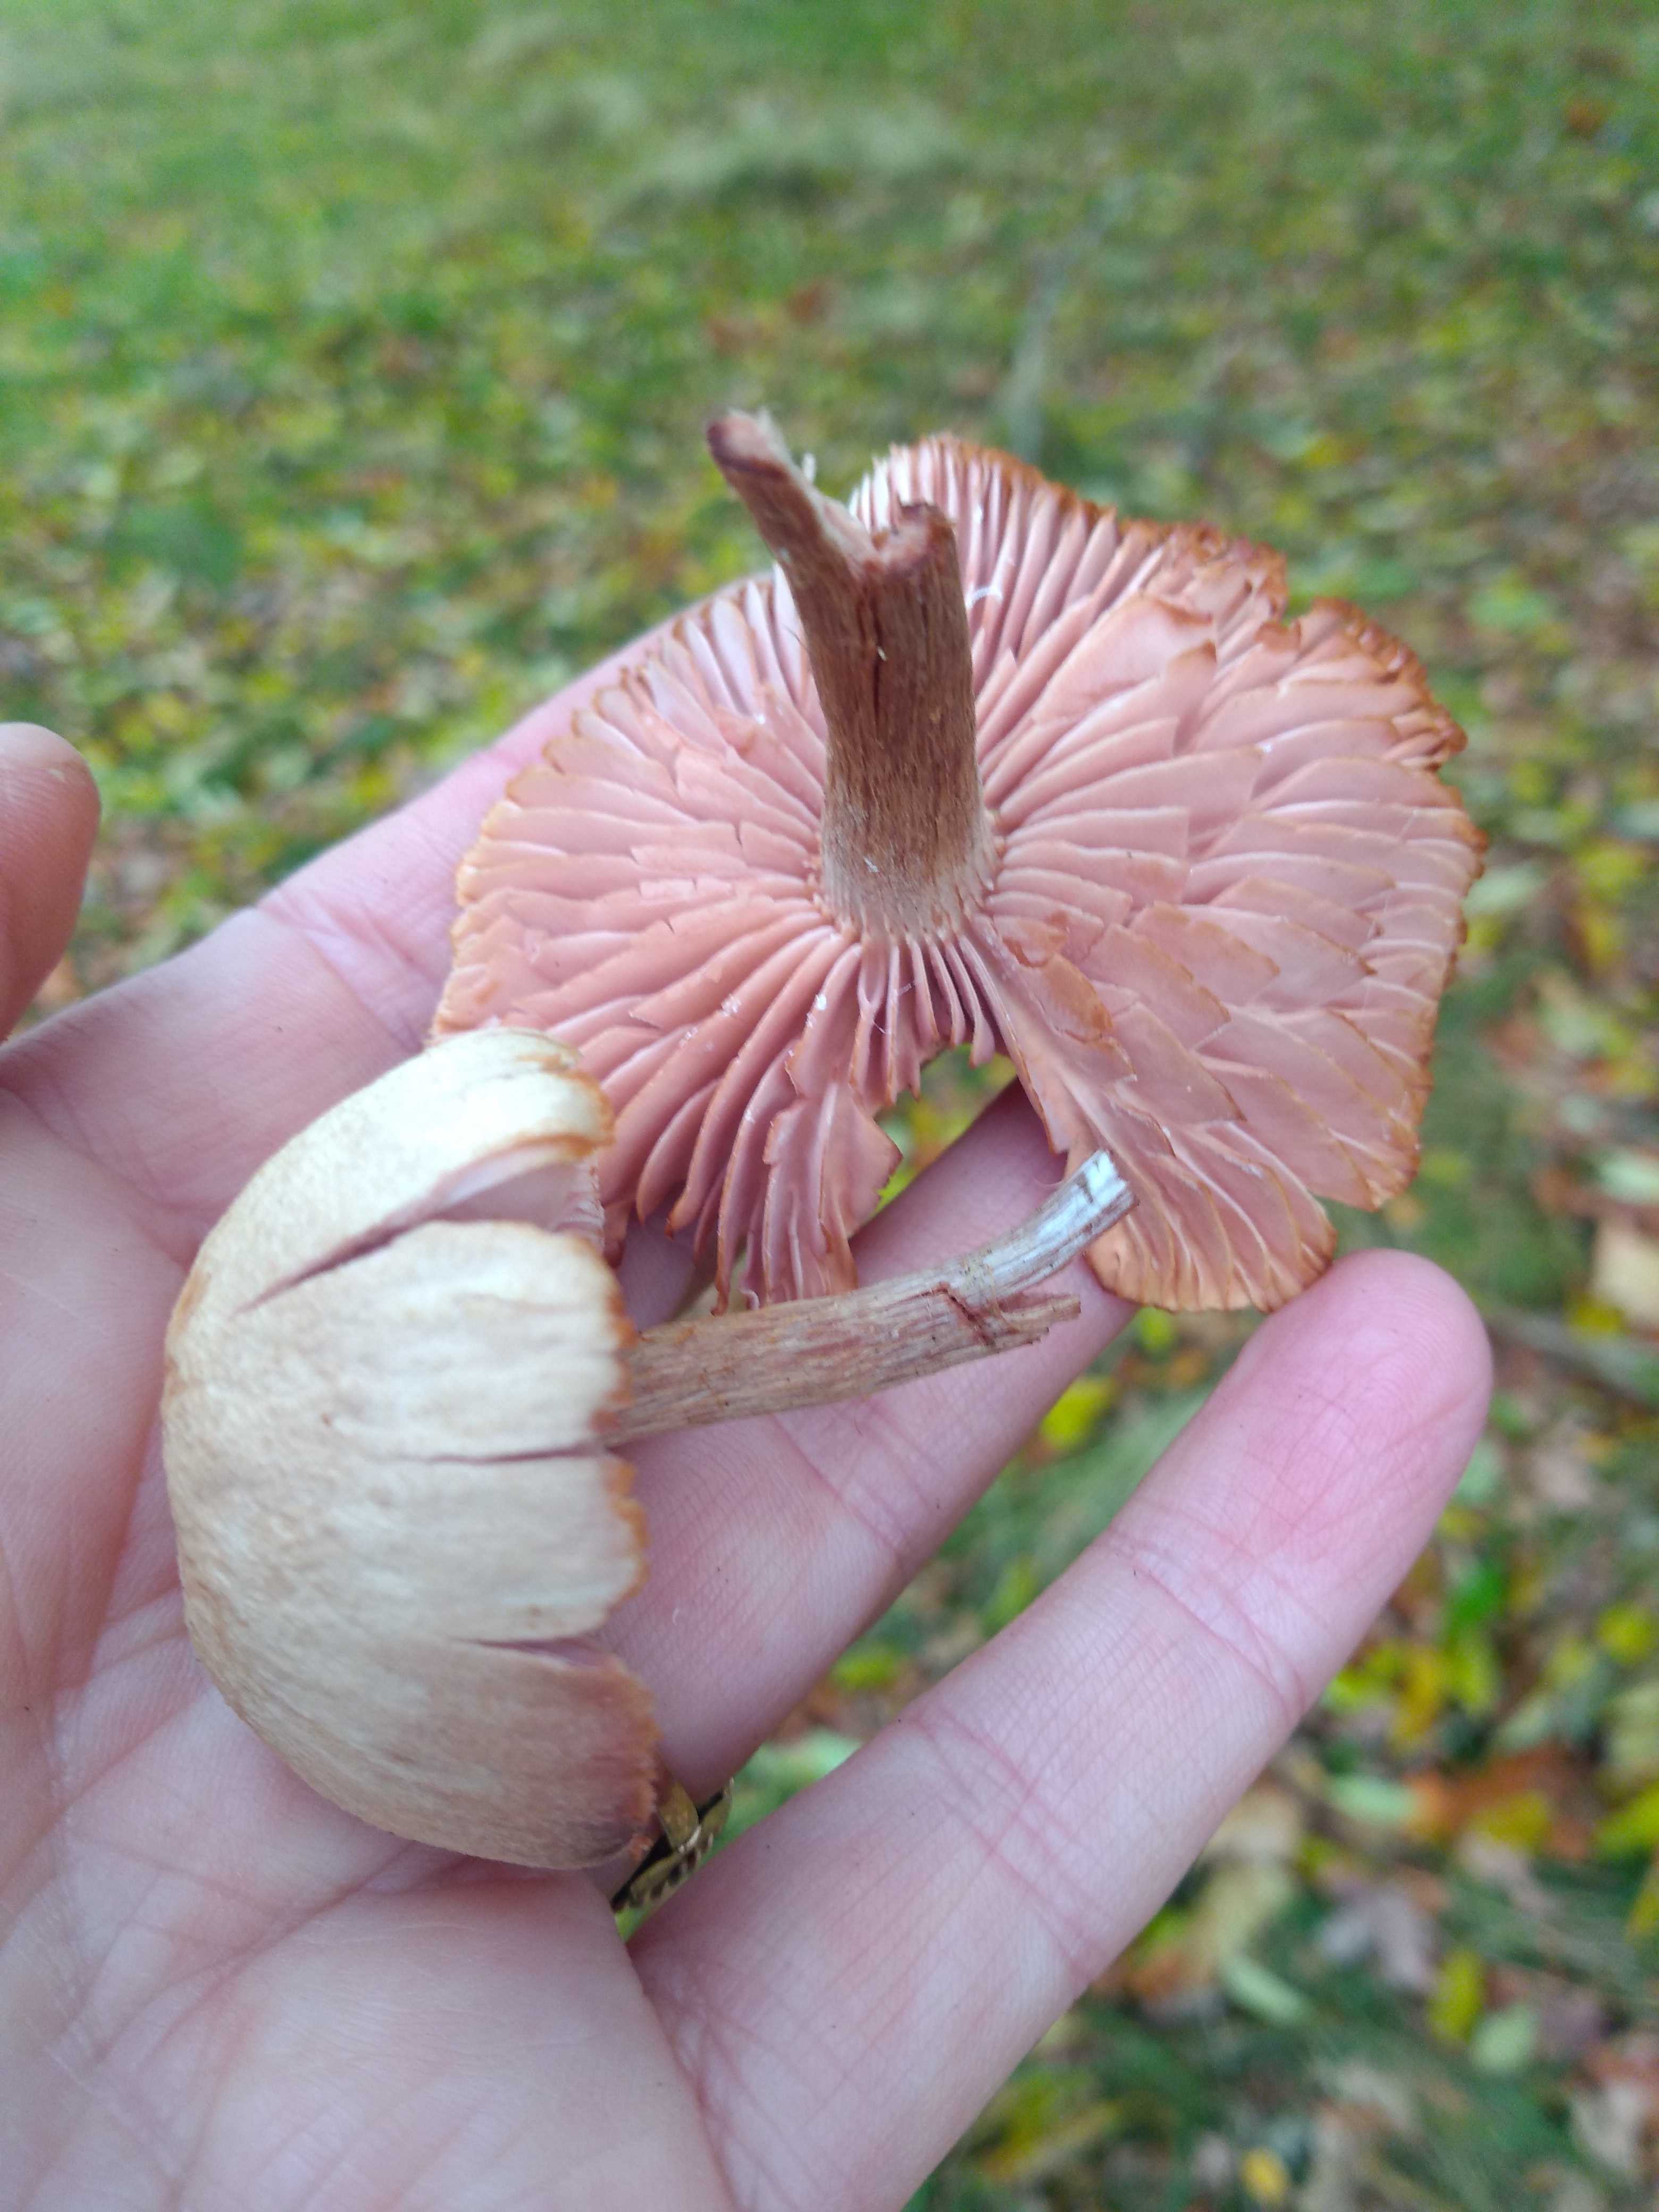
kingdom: Fungi
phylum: Basidiomycota
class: Agaricomycetes
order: Agaricales
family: Hydnangiaceae
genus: Laccaria
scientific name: Laccaria
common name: ametysthat
